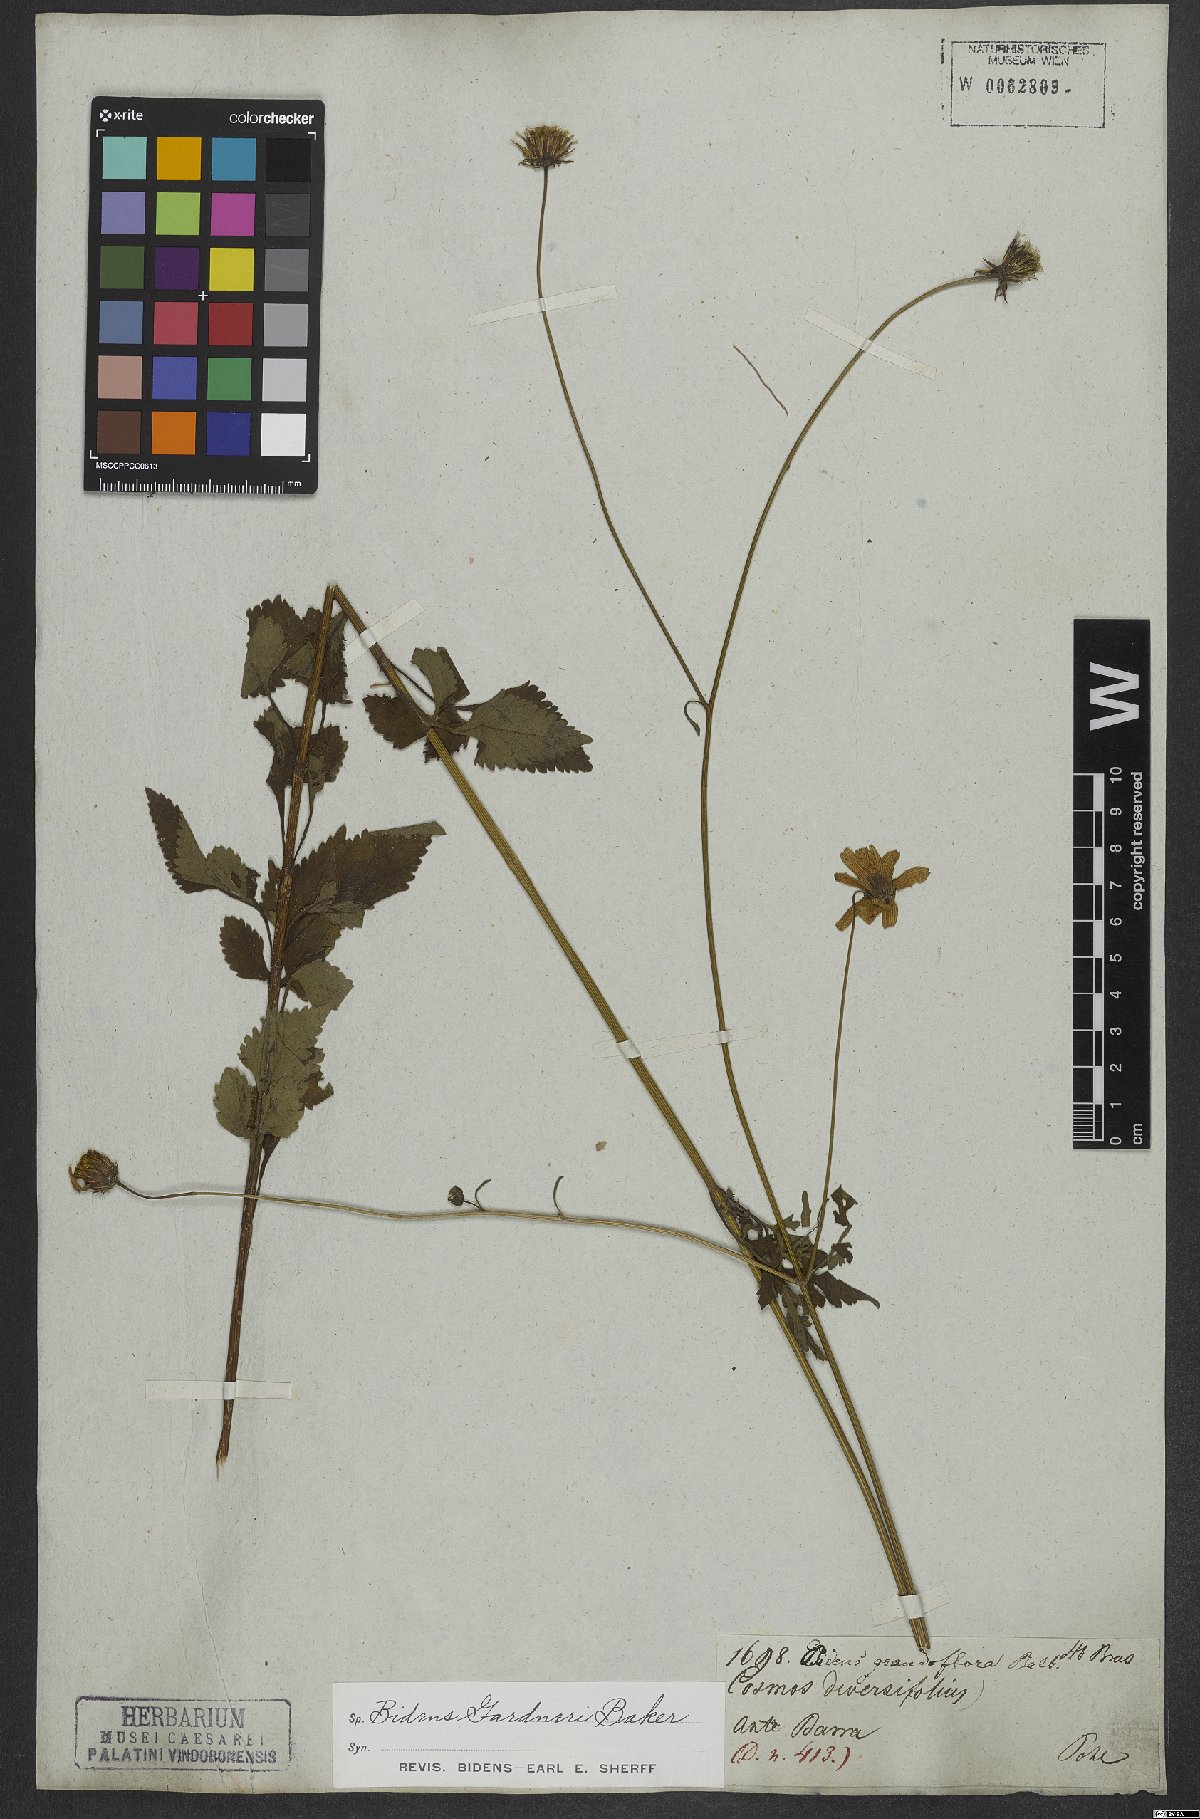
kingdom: Plantae
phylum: Tracheophyta
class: Magnoliopsida
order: Asterales
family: Asteraceae
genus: Bidens
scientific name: Bidens gardneri
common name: Ridge beggartick
